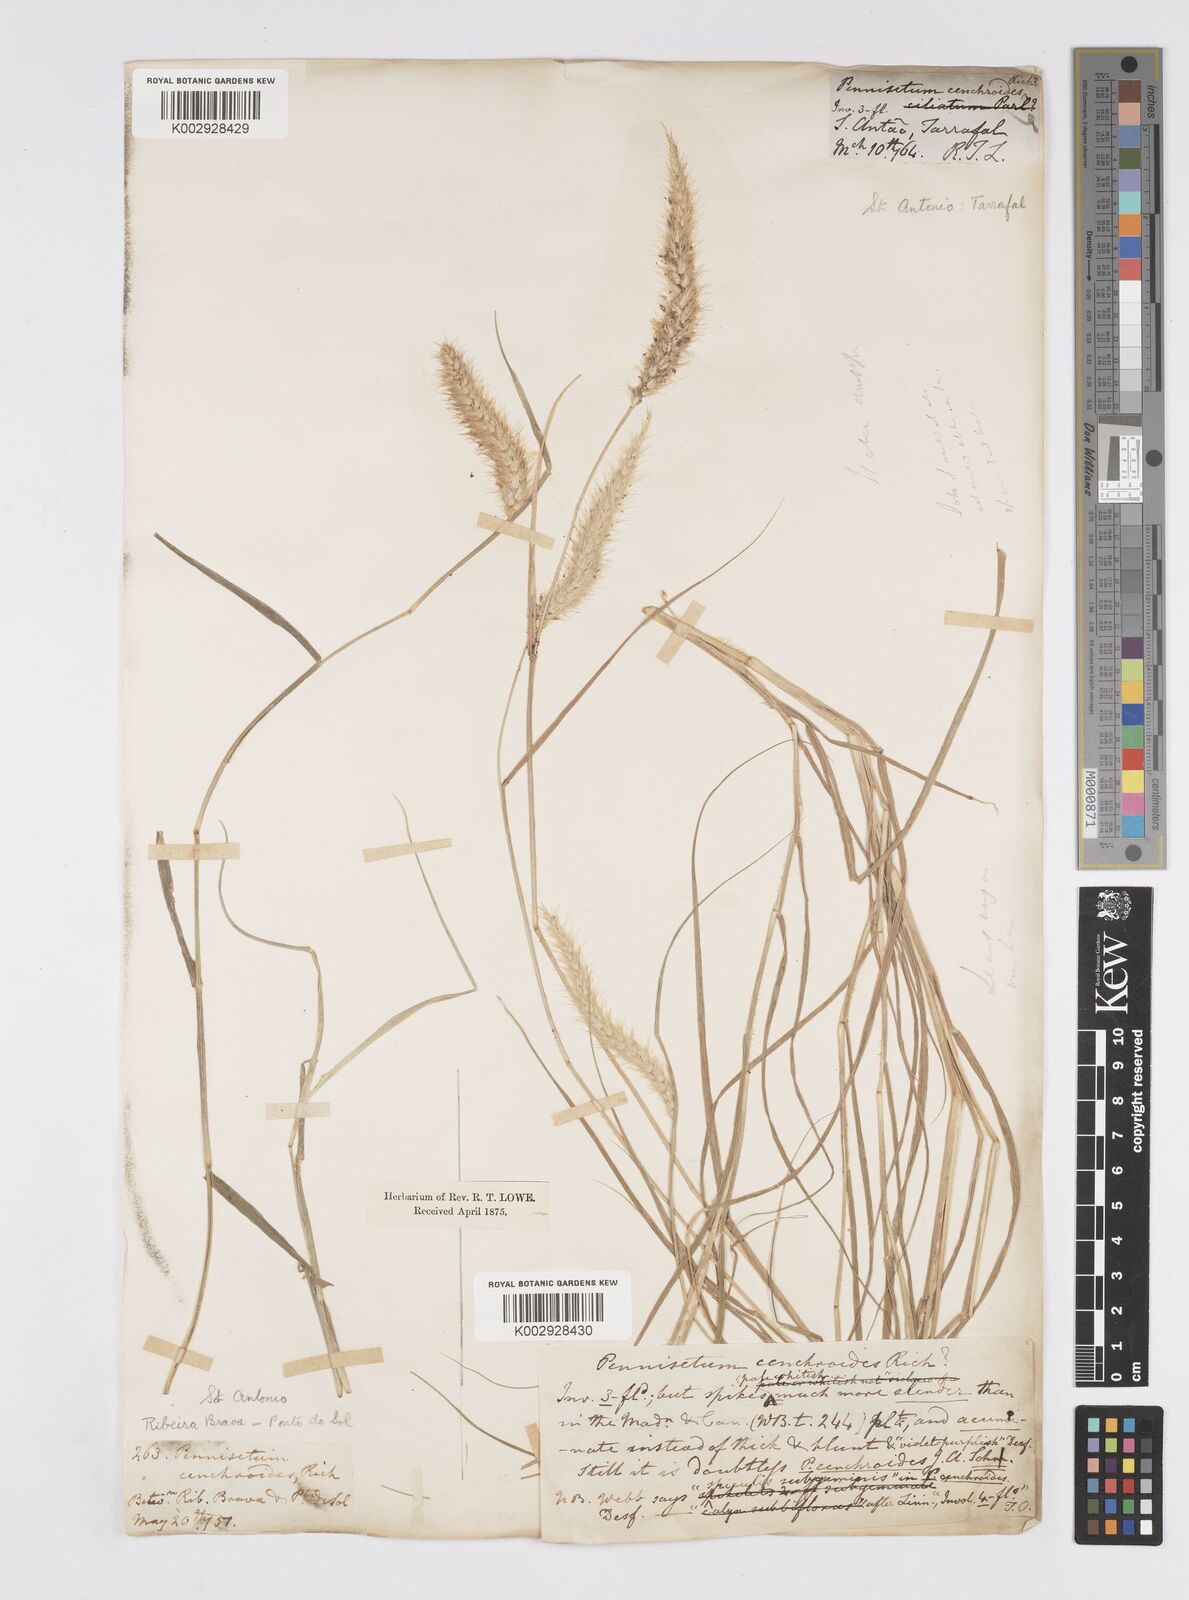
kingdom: Plantae
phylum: Tracheophyta
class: Liliopsida
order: Poales
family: Poaceae
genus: Cenchrus
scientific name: Cenchrus ciliaris
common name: Buffelgrass
